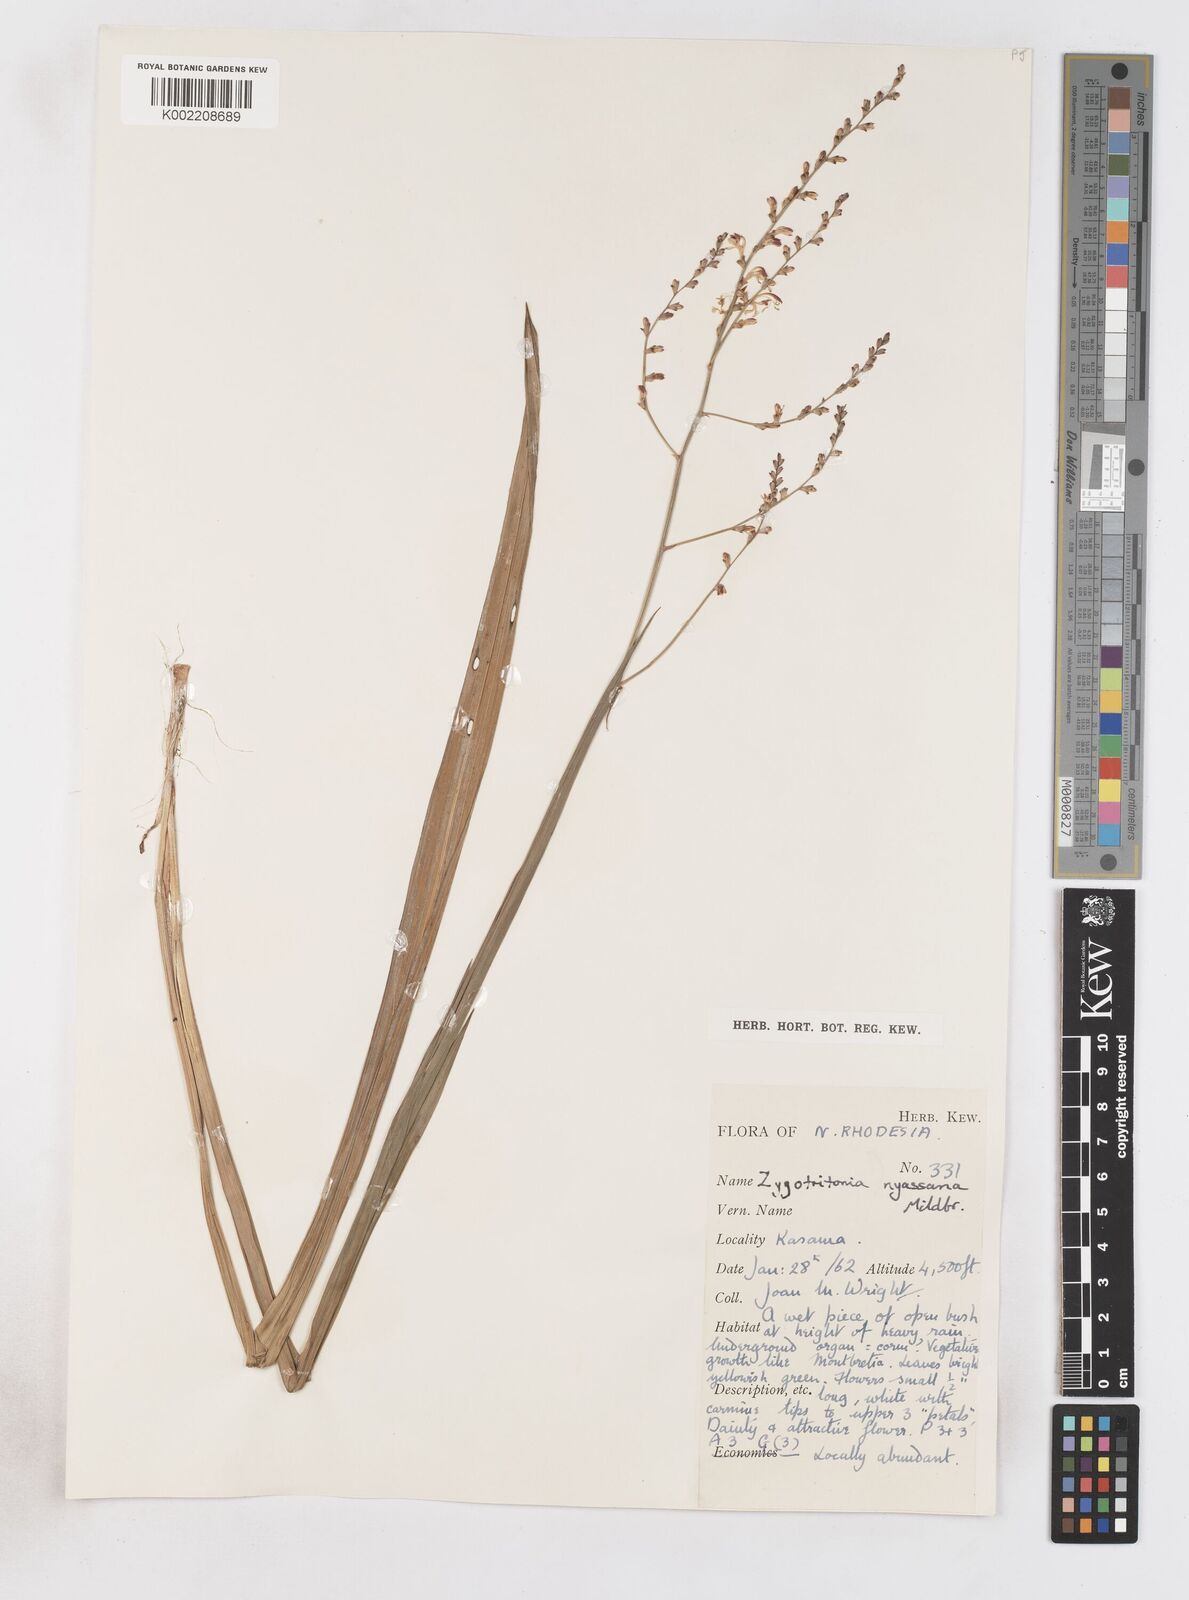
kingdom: Plantae
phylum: Tracheophyta
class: Liliopsida
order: Asparagales
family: Iridaceae
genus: Zygotritonia
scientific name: Zygotritonia nyassana
